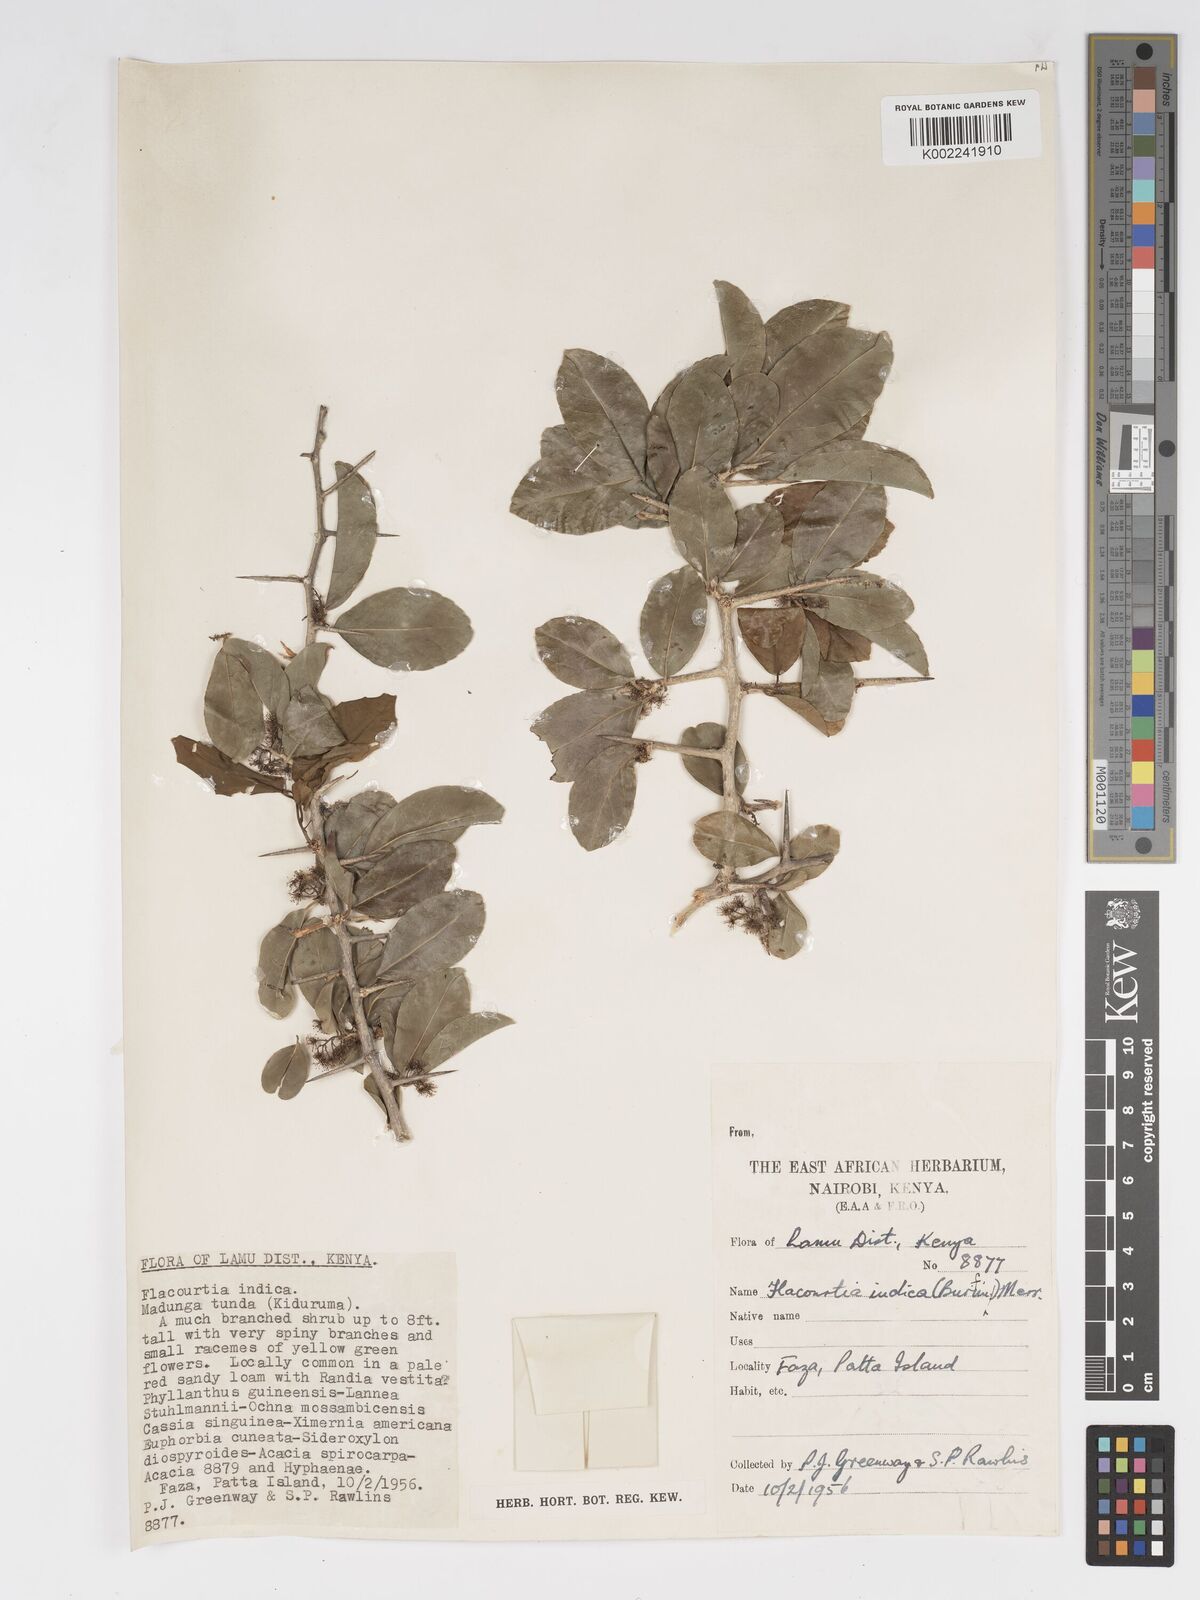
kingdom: Plantae
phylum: Tracheophyta
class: Magnoliopsida
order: Malpighiales
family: Salicaceae
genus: Flacourtia
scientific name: Flacourtia indica
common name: Governor's plum
